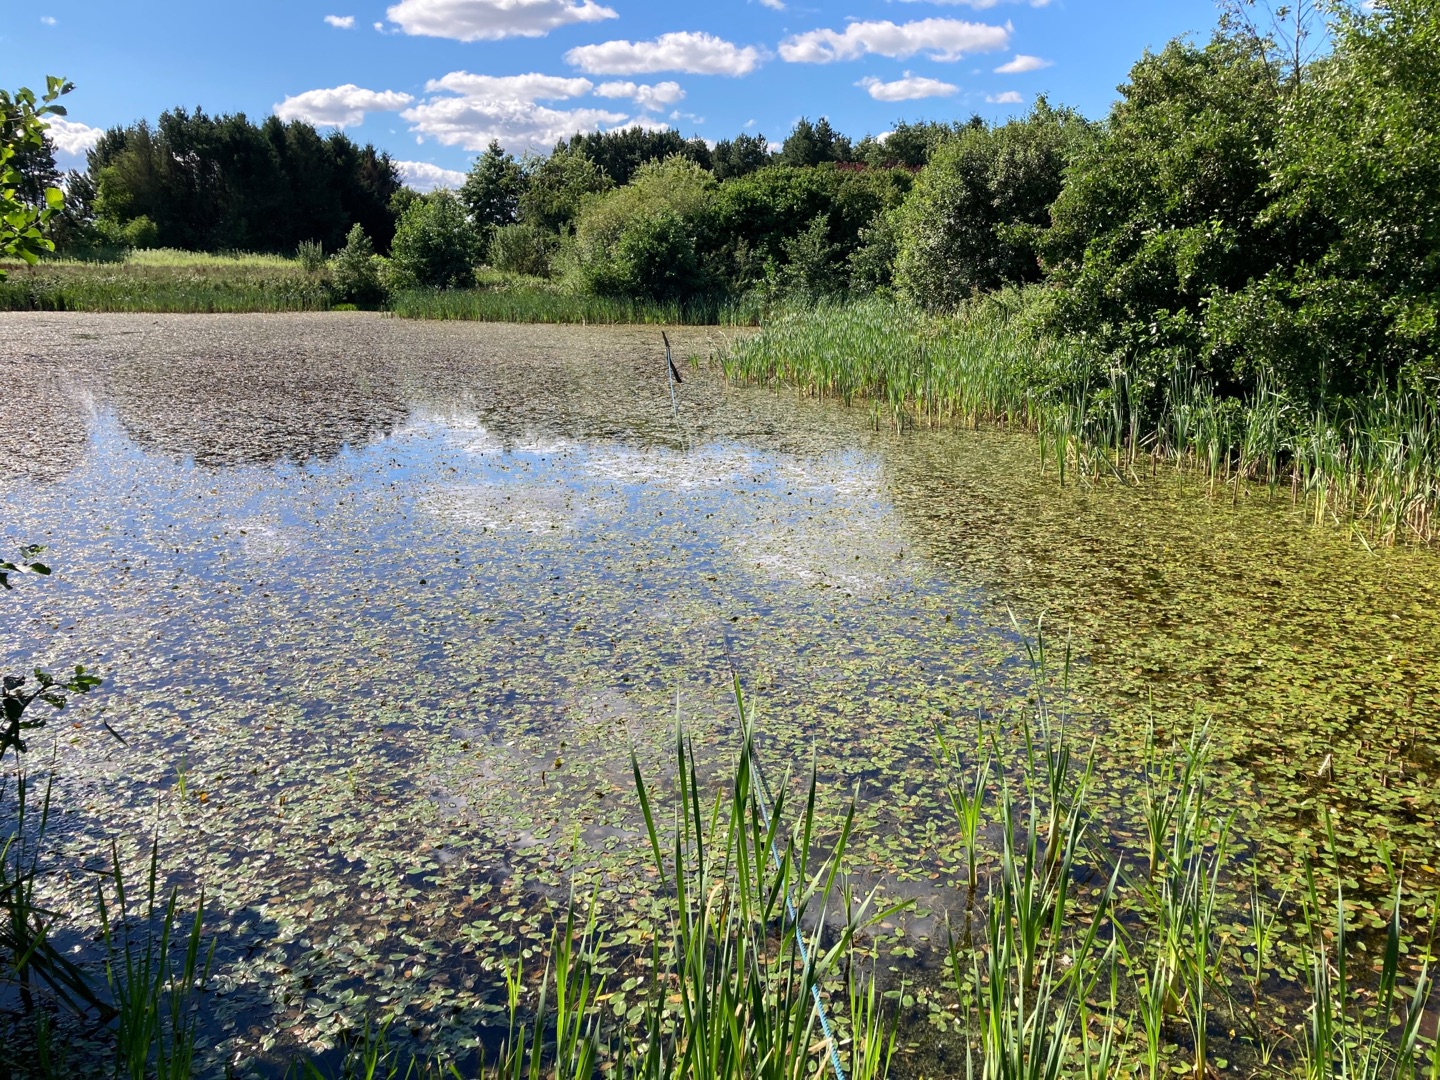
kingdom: Animalia
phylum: Chordata
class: Amphibia
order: Anura
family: Pelobatidae
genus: Pelobates
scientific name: Pelobates fuscus
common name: Løgfrø
